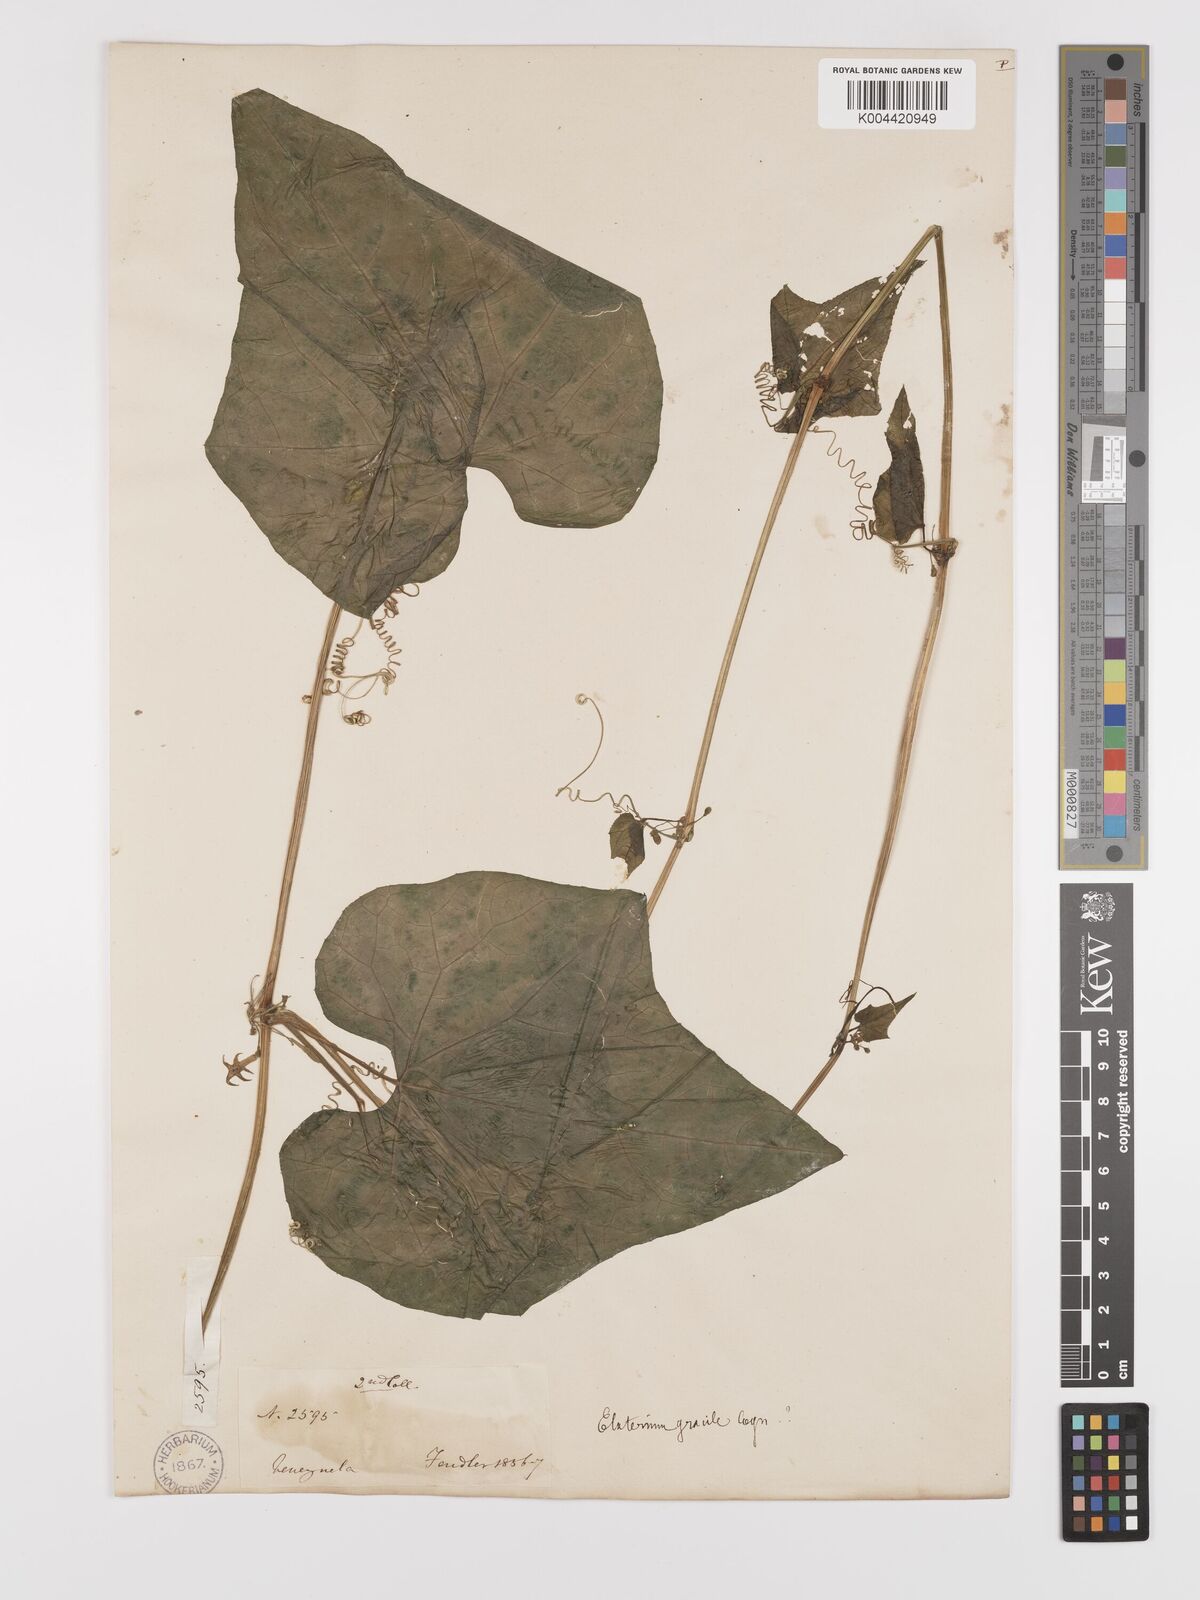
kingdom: Plantae
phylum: Tracheophyta
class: Magnoliopsida
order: Cucurbitales
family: Cucurbitaceae
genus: Cyclanthera
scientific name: Cyclanthera brevisetosa
